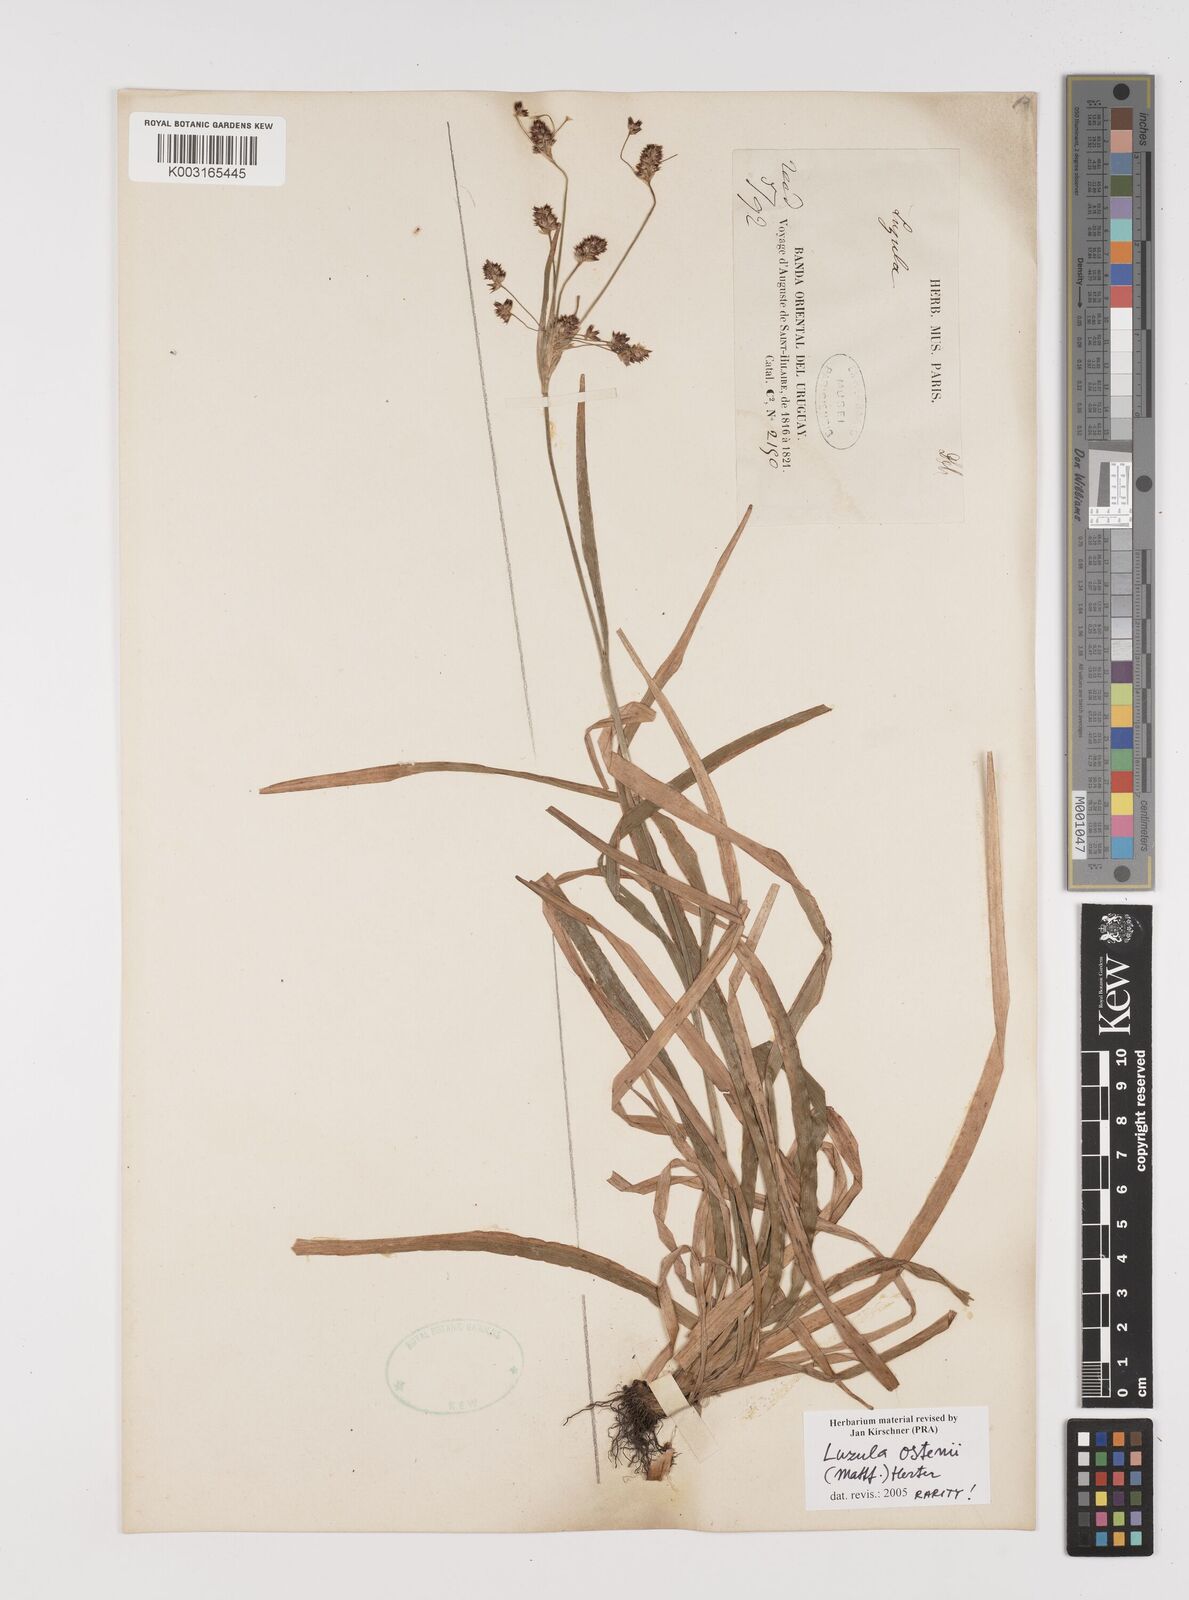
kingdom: Plantae
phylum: Tracheophyta
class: Liliopsida
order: Poales
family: Juncaceae
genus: Luzula
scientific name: Luzula ostenii
